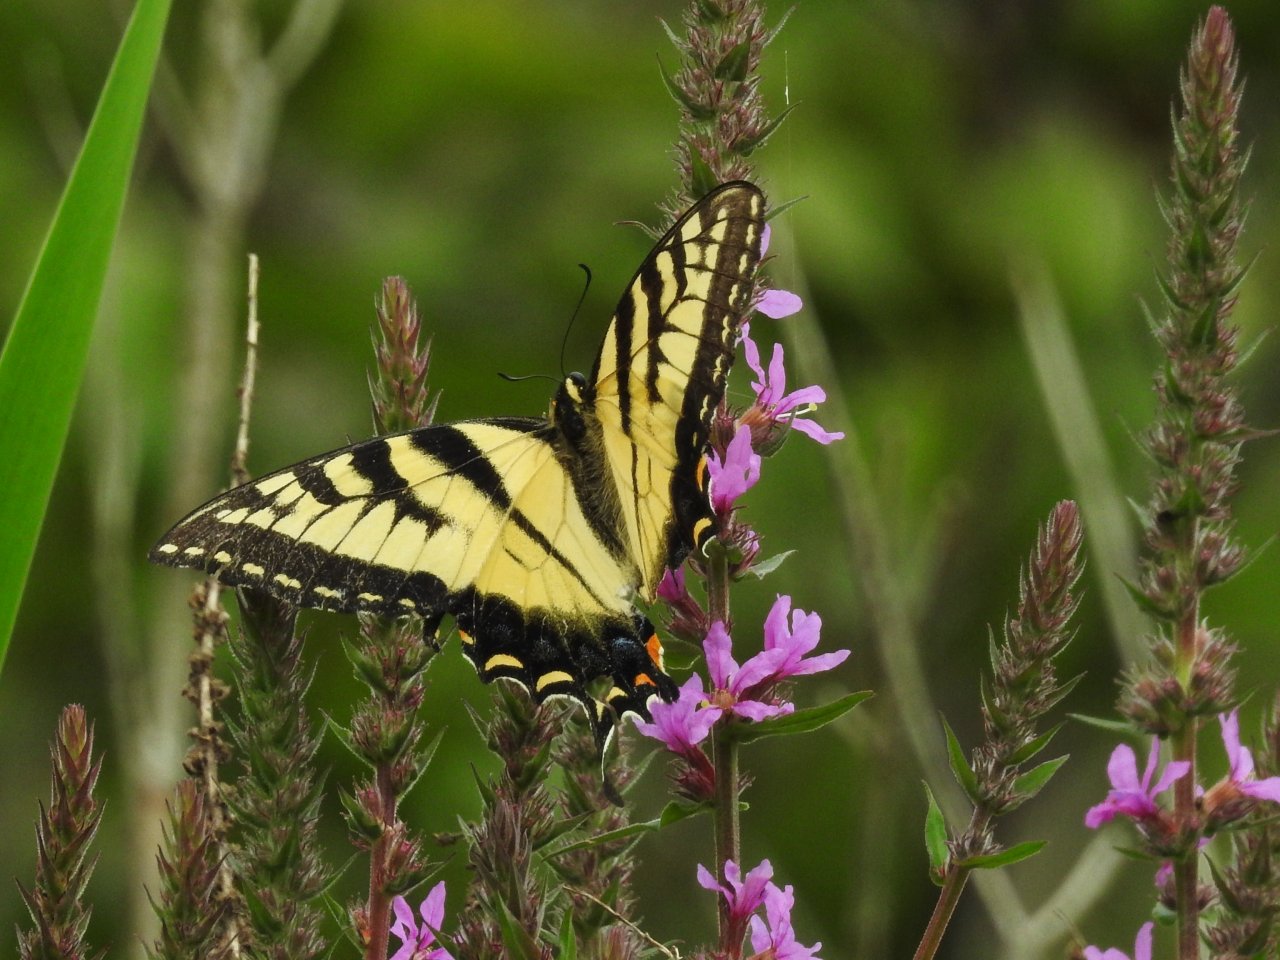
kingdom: Animalia
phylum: Arthropoda
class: Insecta
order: Lepidoptera
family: Papilionidae
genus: Pterourus
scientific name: Pterourus glaucus
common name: Eastern Tiger Swallowtail
